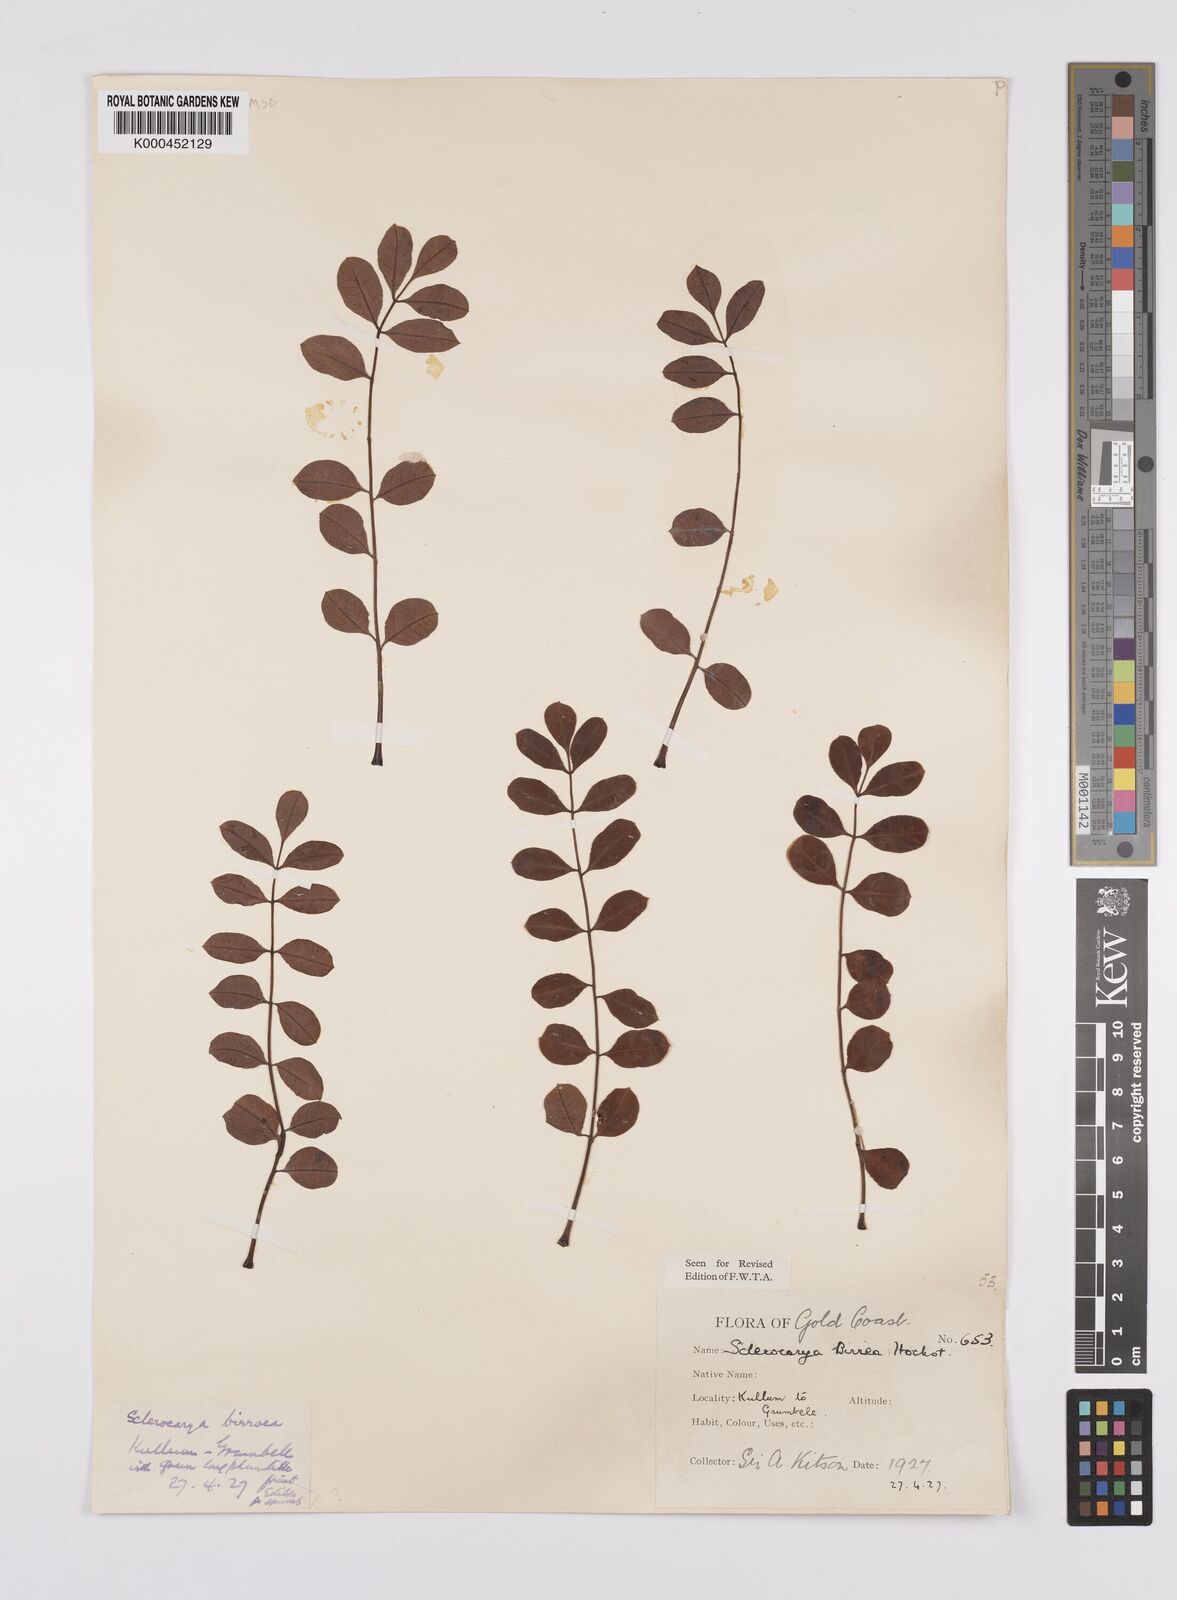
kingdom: Plantae
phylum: Tracheophyta
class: Magnoliopsida
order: Sapindales
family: Anacardiaceae
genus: Sclerocarya
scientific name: Sclerocarya birrea
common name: Marula
